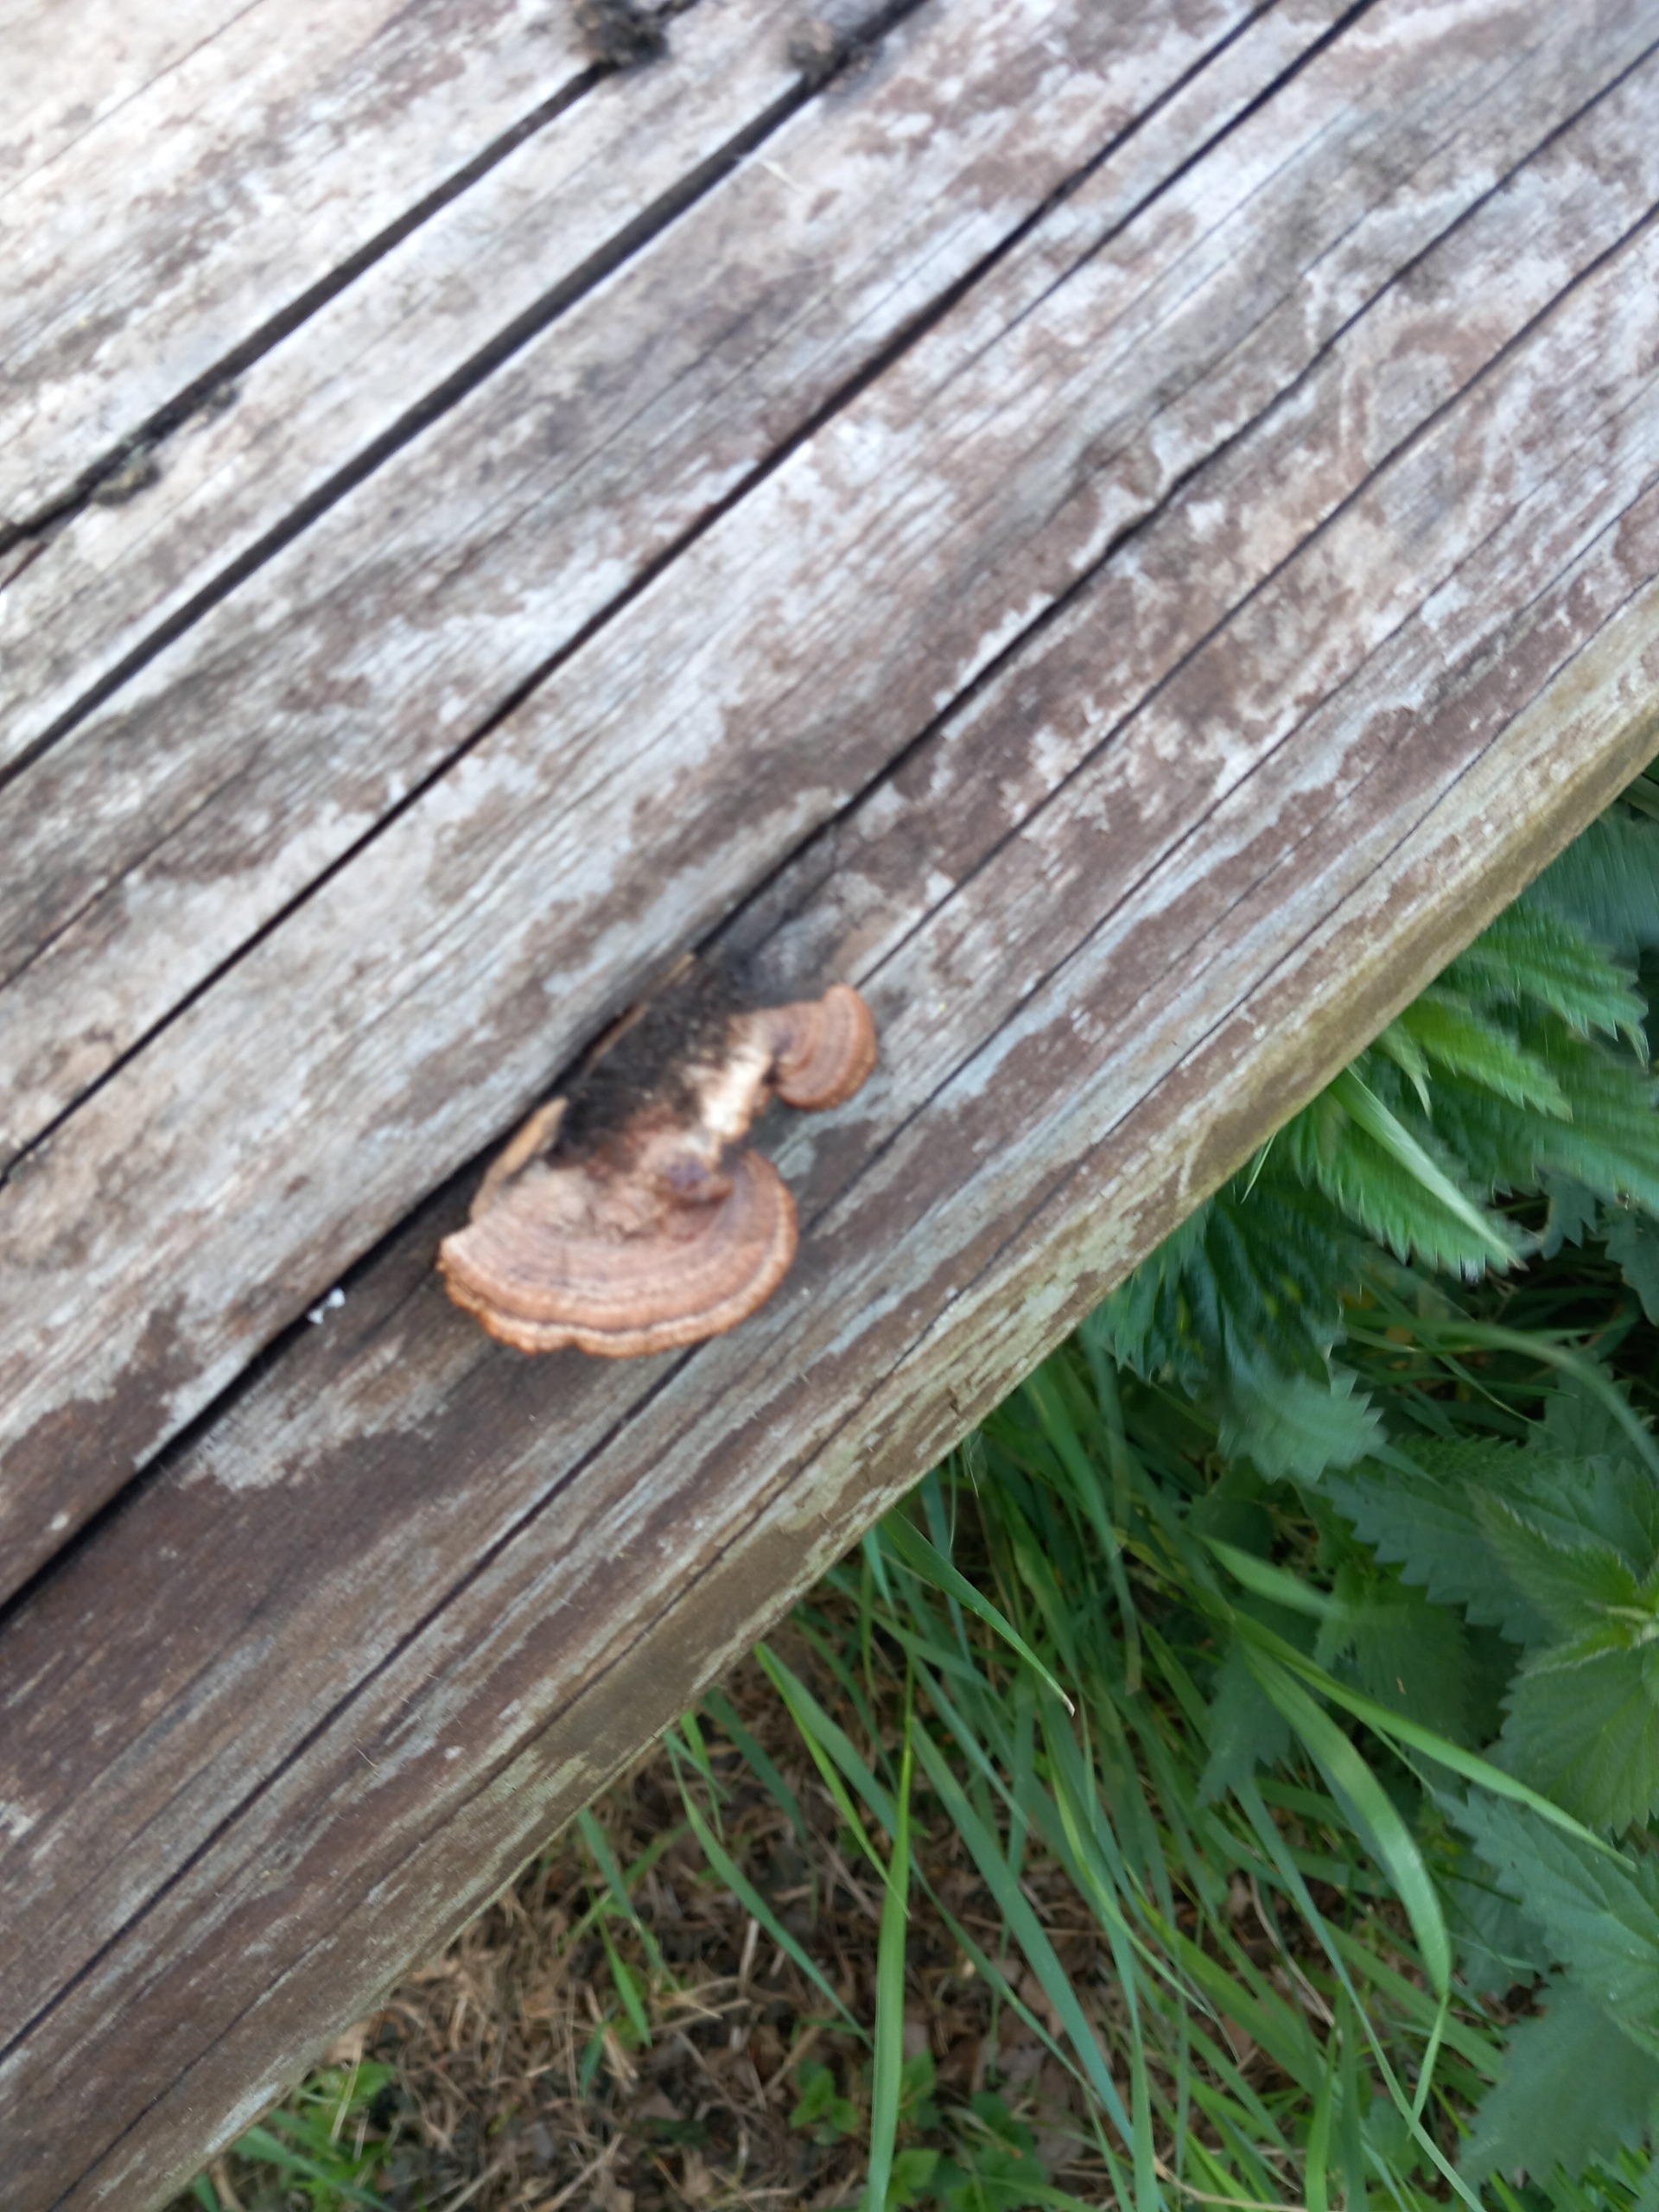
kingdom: Fungi
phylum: Basidiomycota
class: Agaricomycetes
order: Gloeophyllales
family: Gloeophyllaceae
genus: Gloeophyllum
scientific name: Gloeophyllum sepiarium
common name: Fyrre-korkhat
